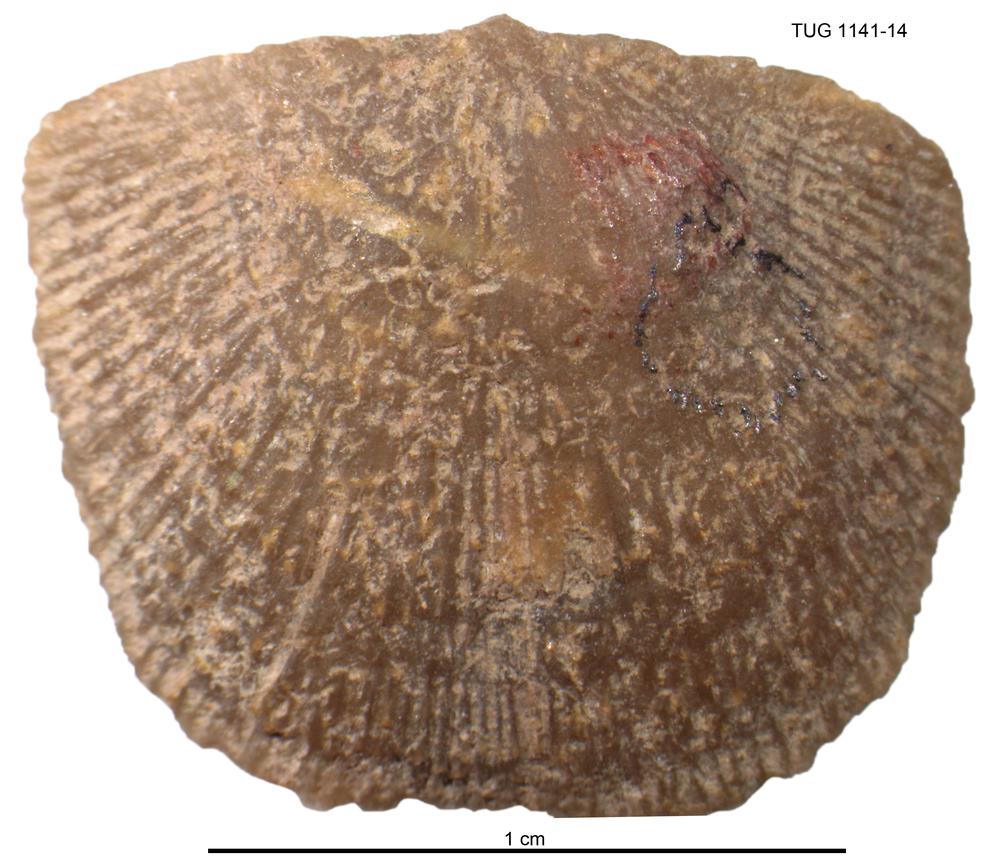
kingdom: Animalia
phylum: Brachiopoda
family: Gonambonitidae
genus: Gonambonites
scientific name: Gonambonites plana
